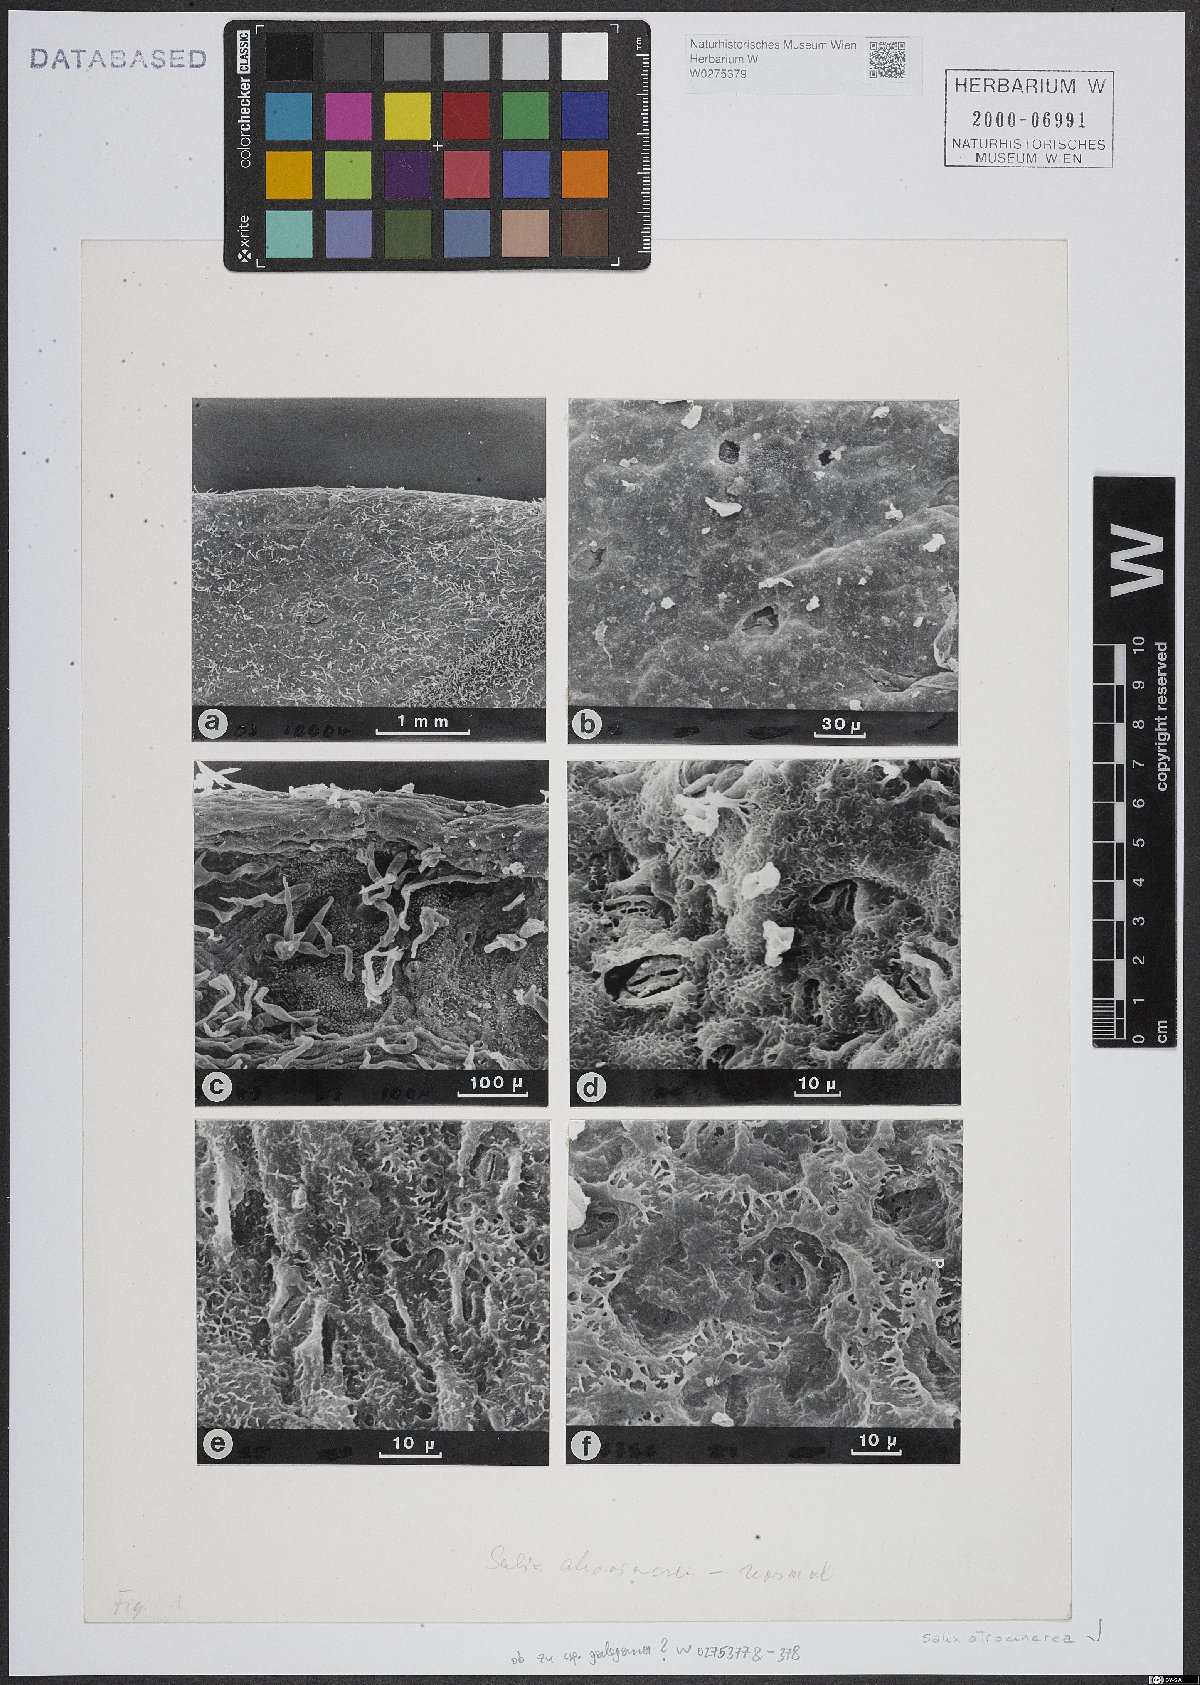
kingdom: Plantae
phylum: Tracheophyta
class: Magnoliopsida
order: Malpighiales
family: Salicaceae
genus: Salix
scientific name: Salix atrocinerea
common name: Rusty willow
